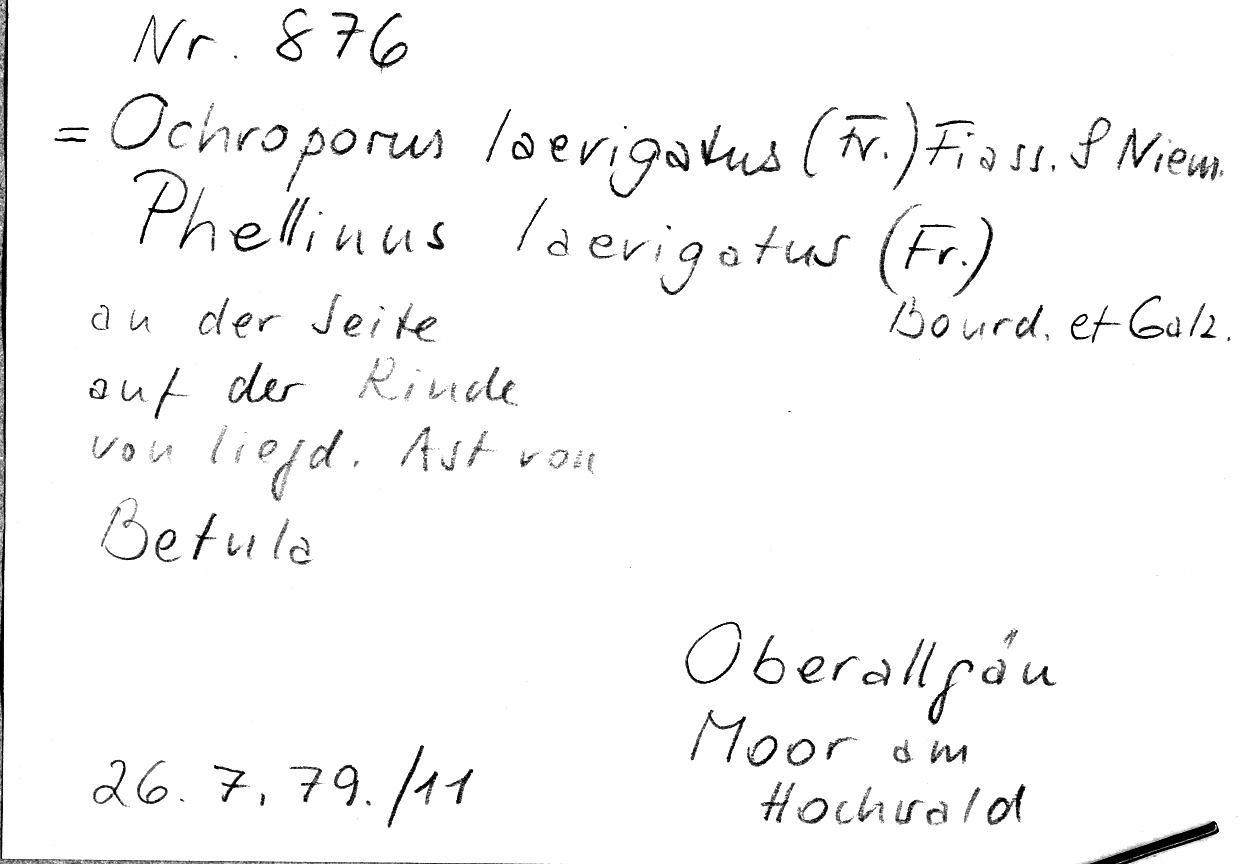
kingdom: Plantae
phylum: Tracheophyta
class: Magnoliopsida
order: Fagales
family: Betulaceae
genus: Betula
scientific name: Betula
